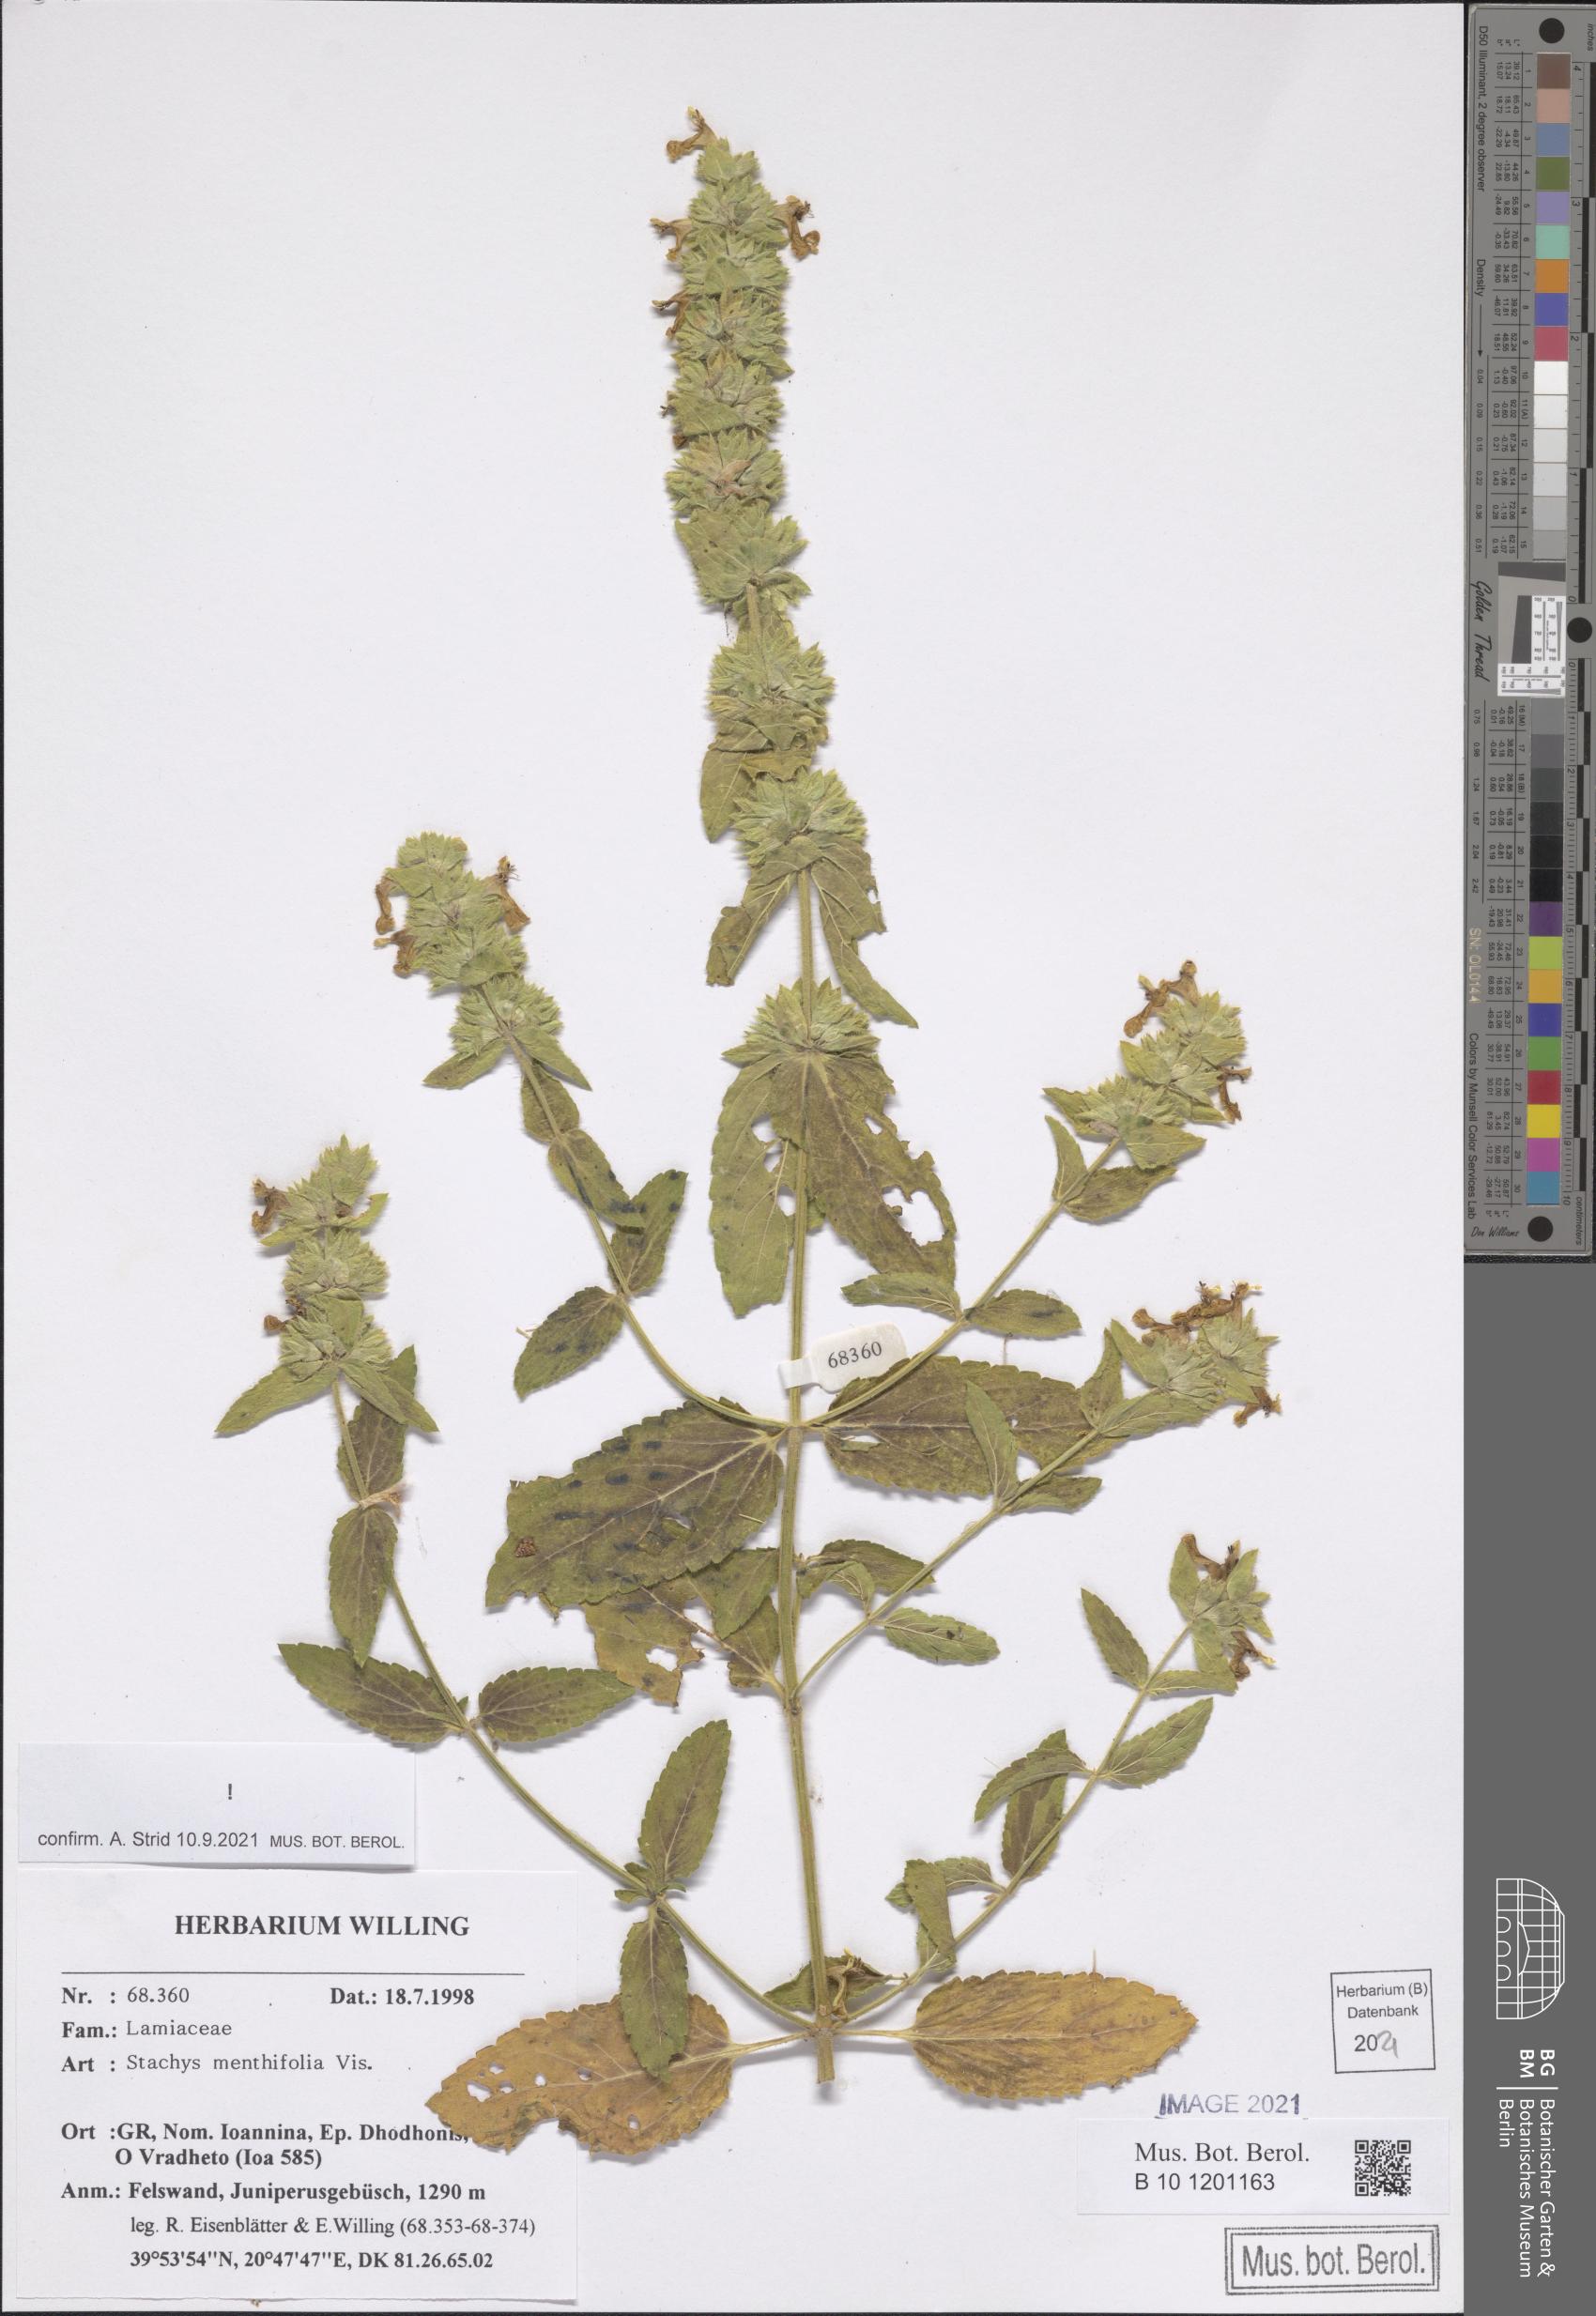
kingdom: Plantae
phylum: Tracheophyta
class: Magnoliopsida
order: Lamiales
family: Lamiaceae
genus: Stachys
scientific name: Stachys menthifolia
